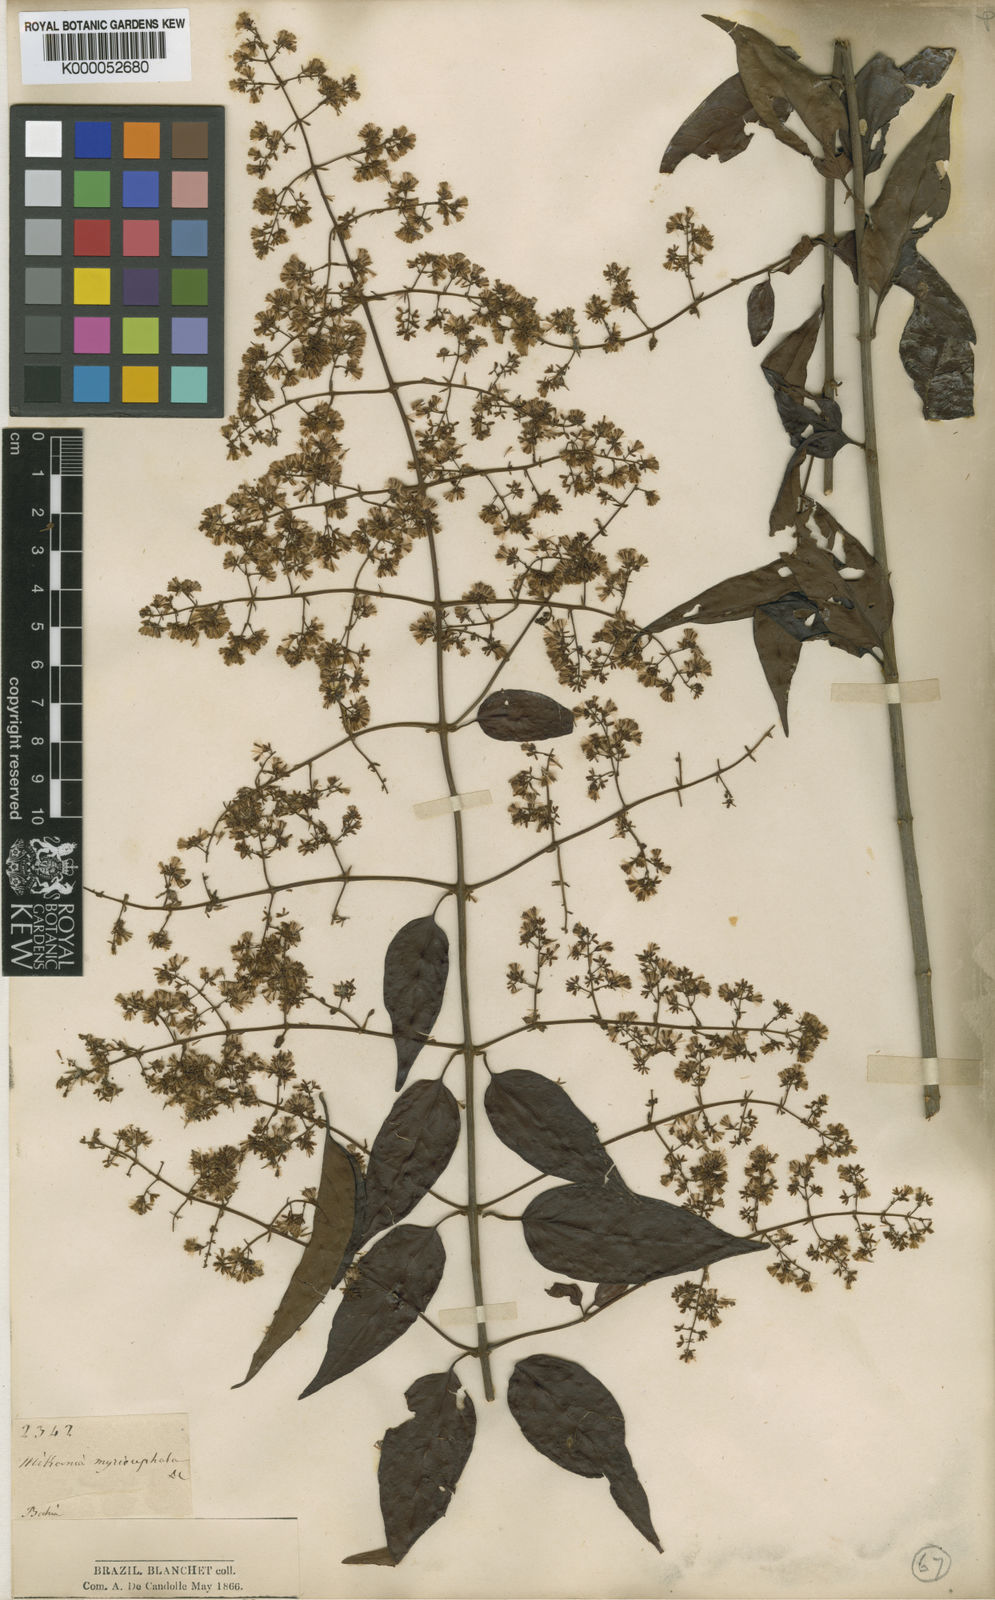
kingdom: Plantae
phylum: Tracheophyta
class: Magnoliopsida
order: Asterales
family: Asteraceae
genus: Mikania
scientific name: Mikania myriocephala
